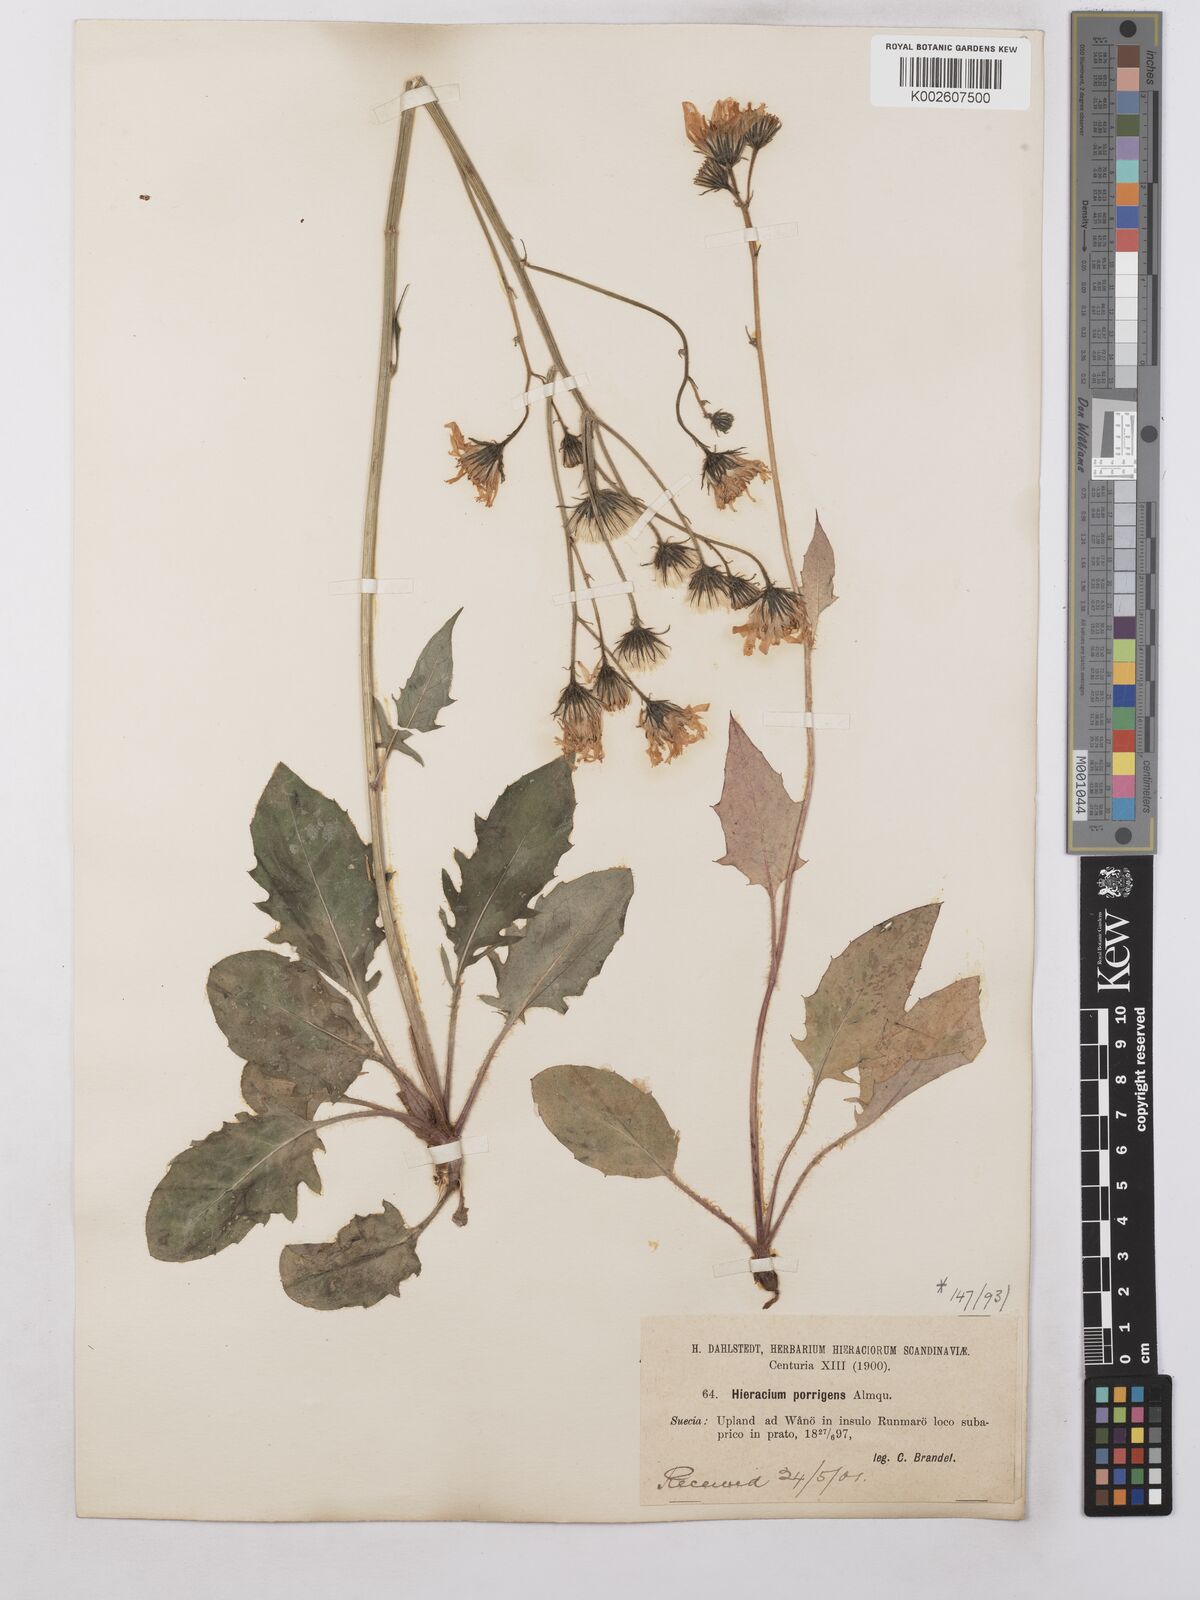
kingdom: Plantae
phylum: Tracheophyta
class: Magnoliopsida
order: Asterales
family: Asteraceae
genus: Hieracium
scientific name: Hieracium caesium
